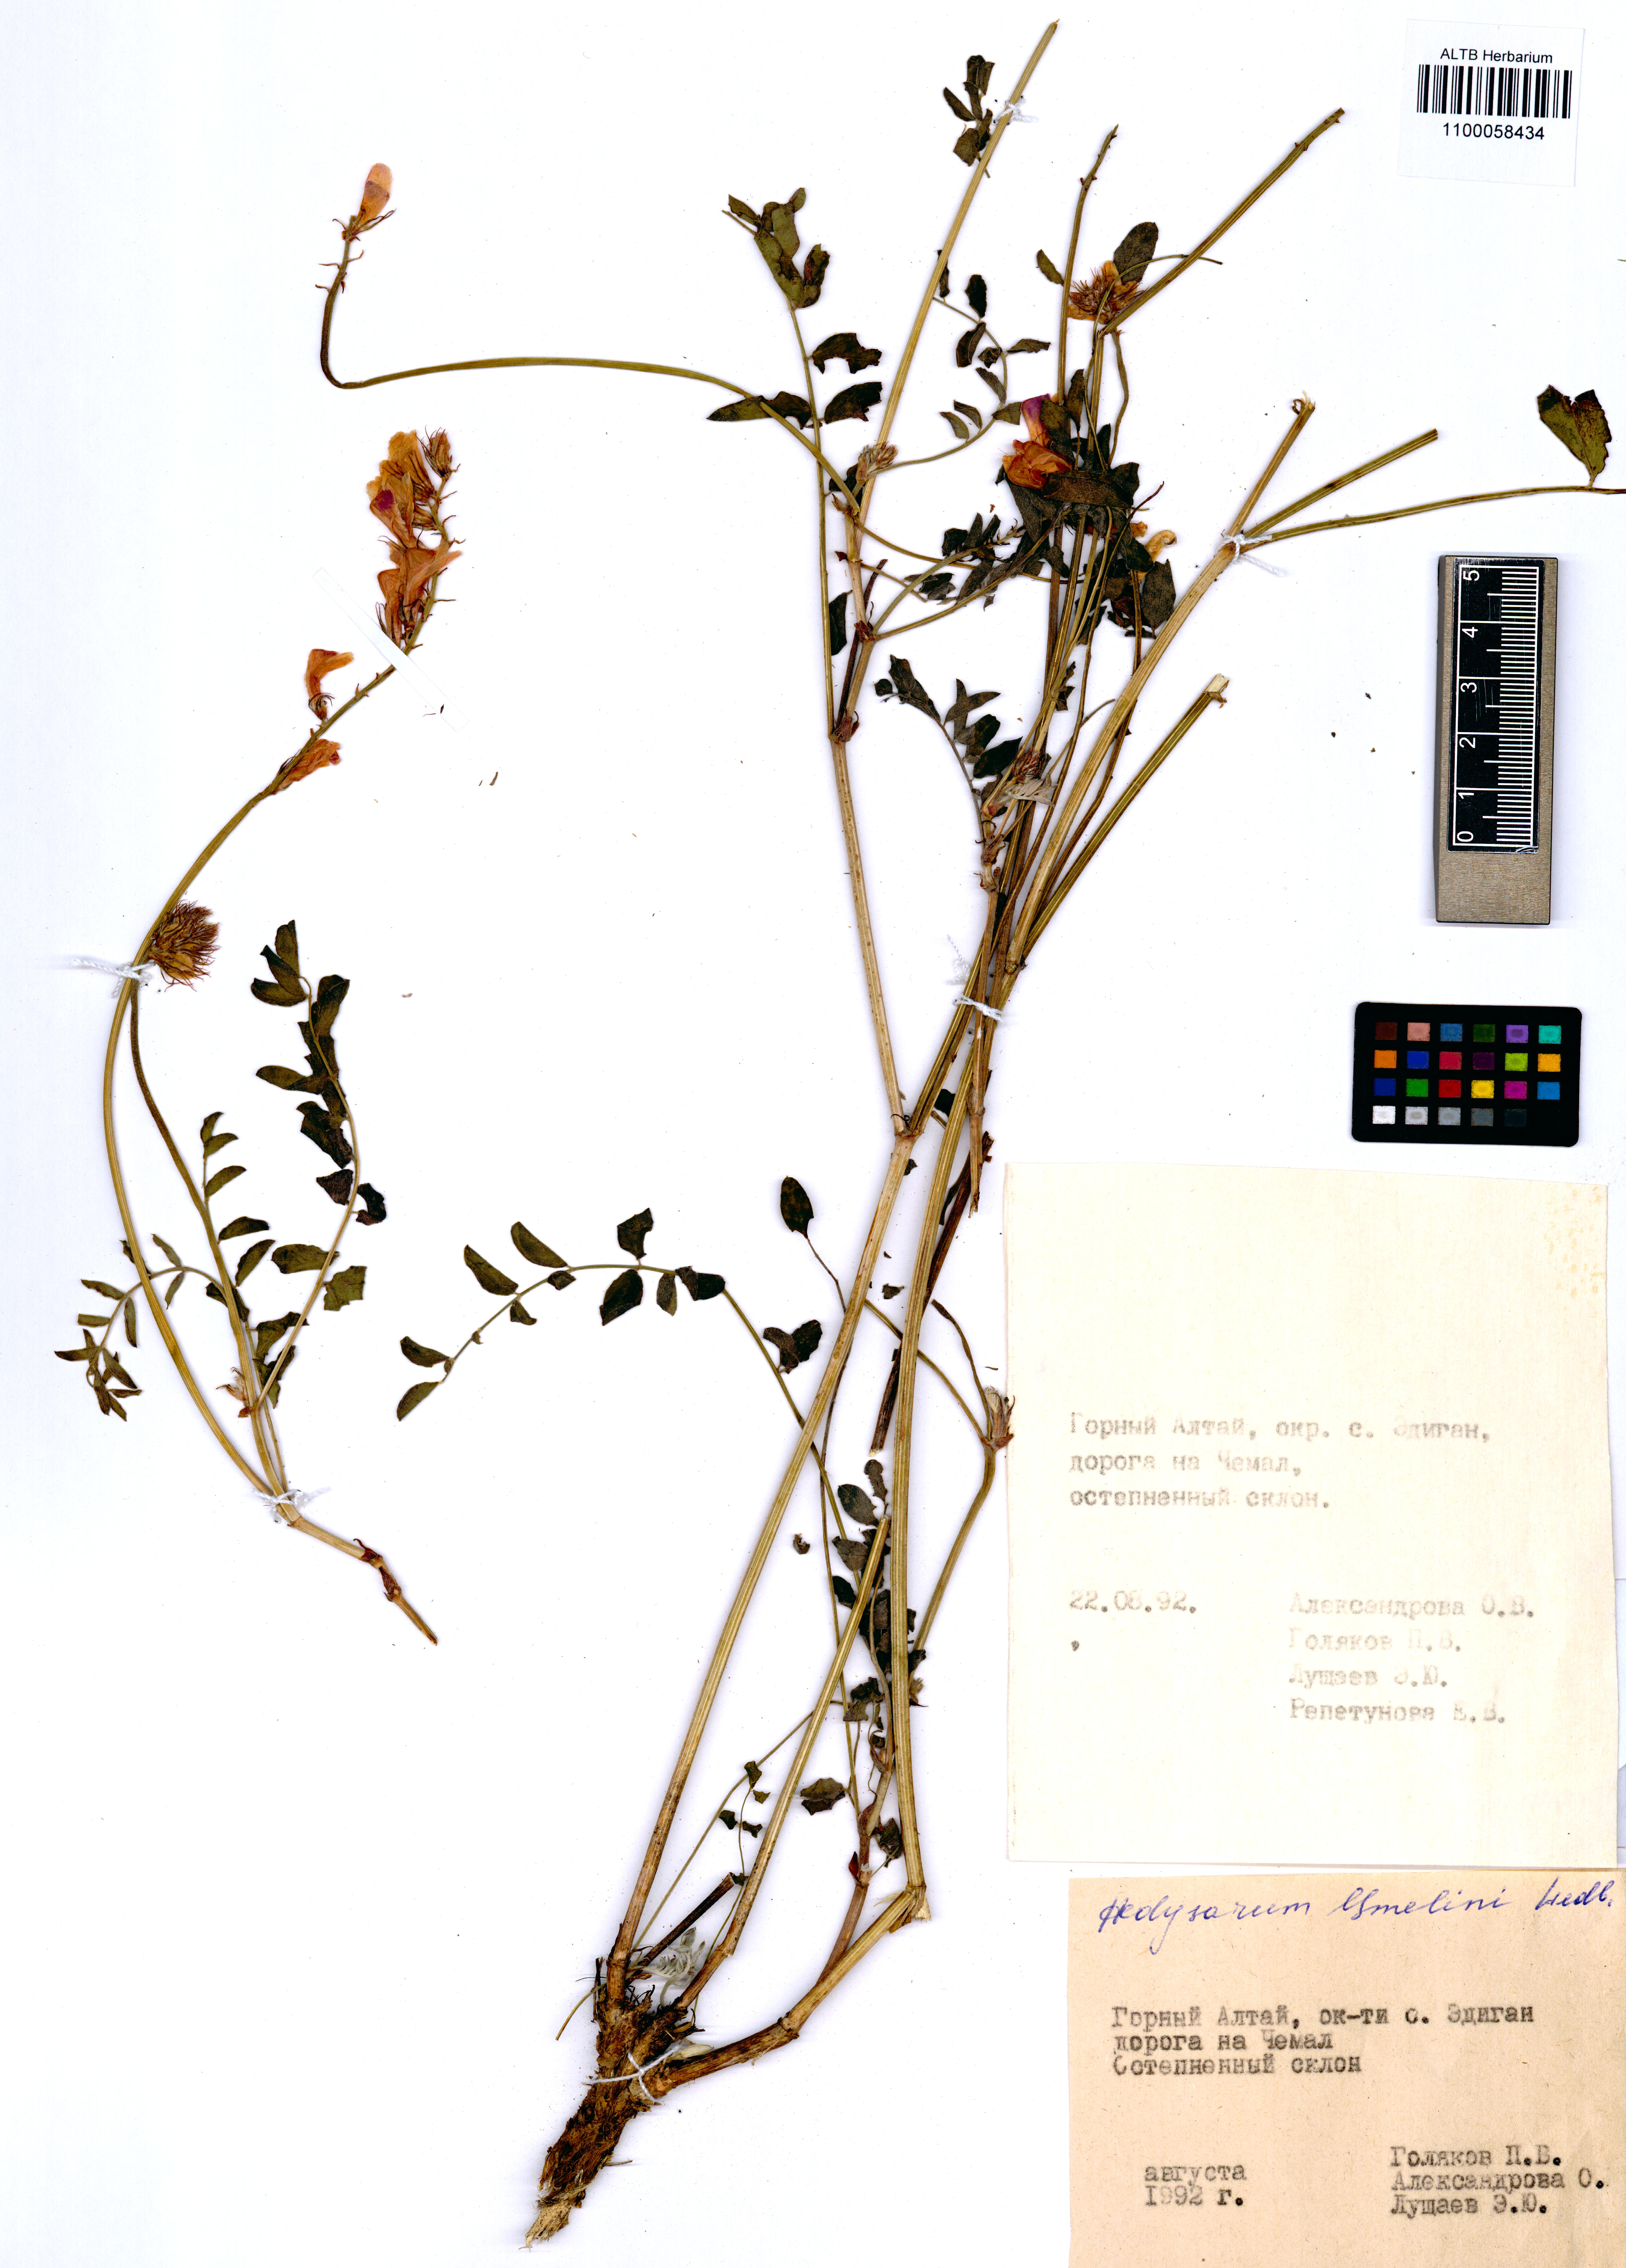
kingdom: Plantae
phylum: Tracheophyta
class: Magnoliopsida
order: Fabales
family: Fabaceae
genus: Hedysarum
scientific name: Hedysarum gmelinii
